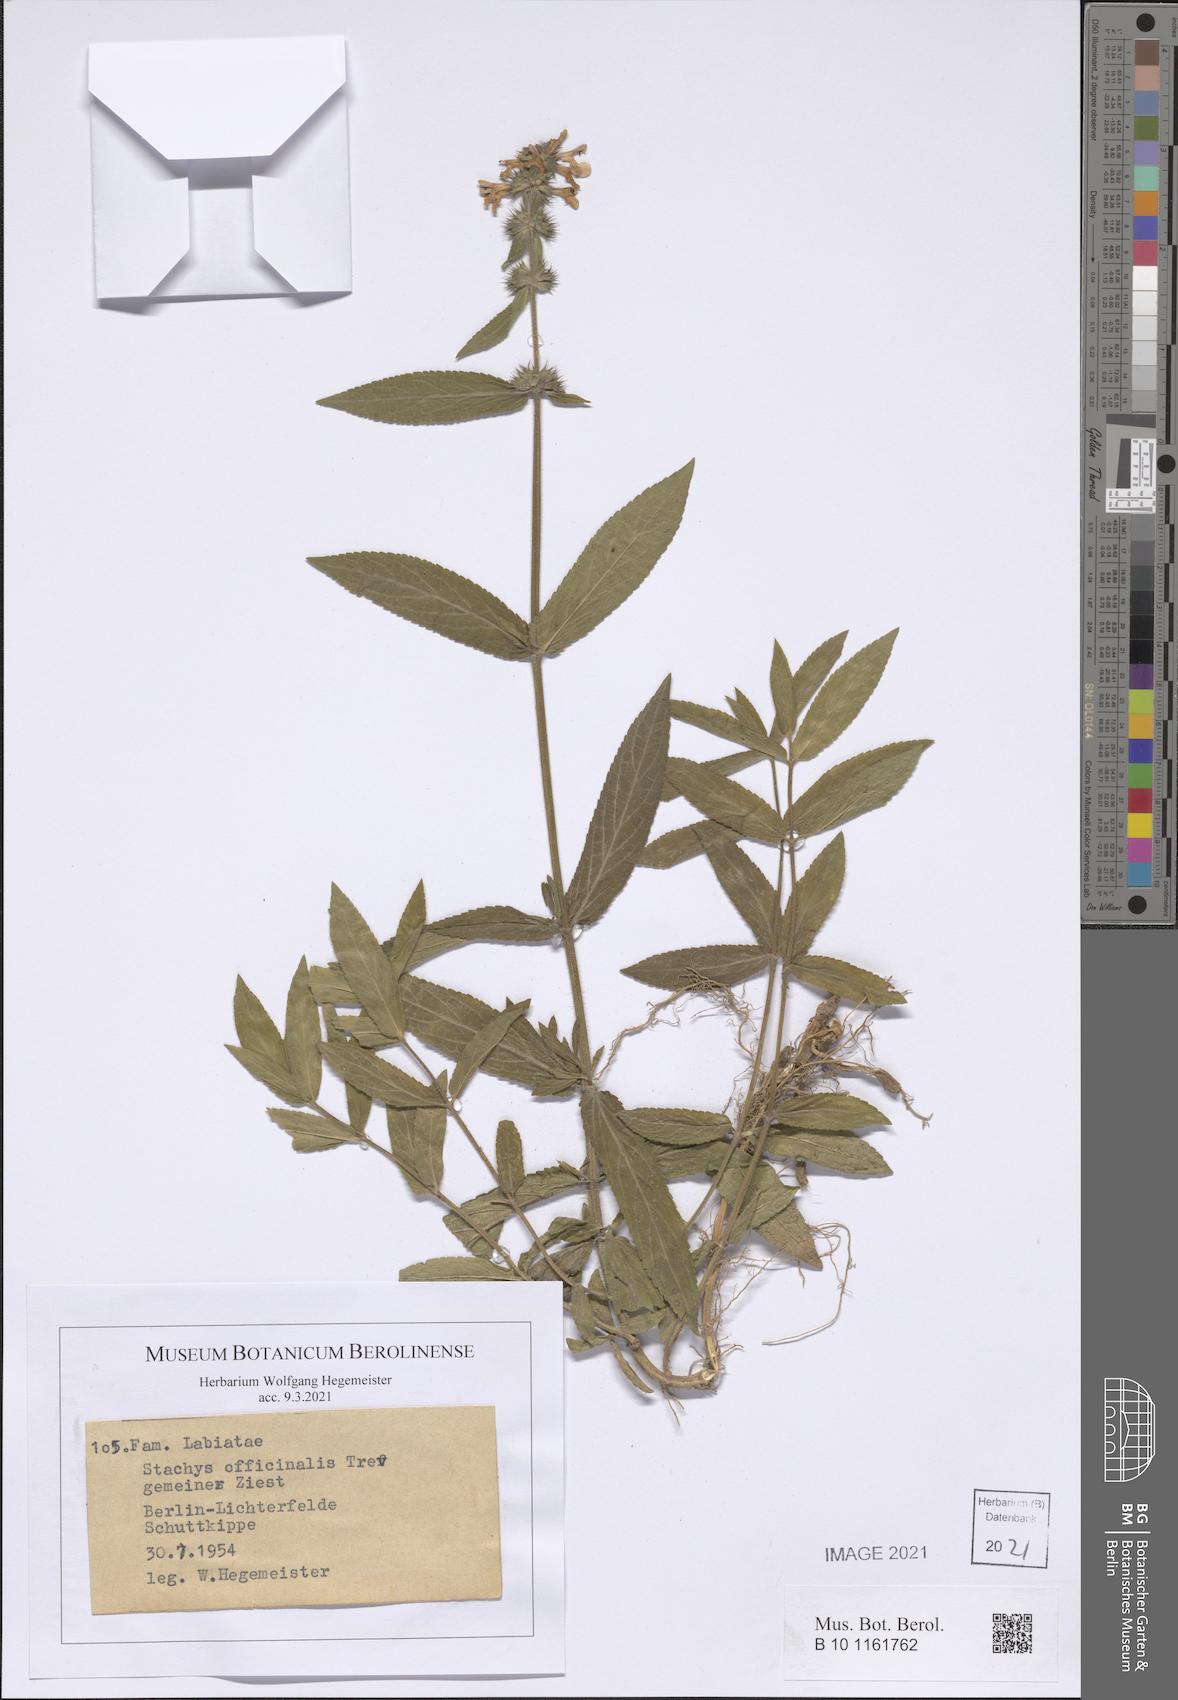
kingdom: Plantae
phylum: Tracheophyta
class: Magnoliopsida
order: Lamiales
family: Lamiaceae
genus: Betonica
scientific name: Betonica officinalis
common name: Bishop's-wort
